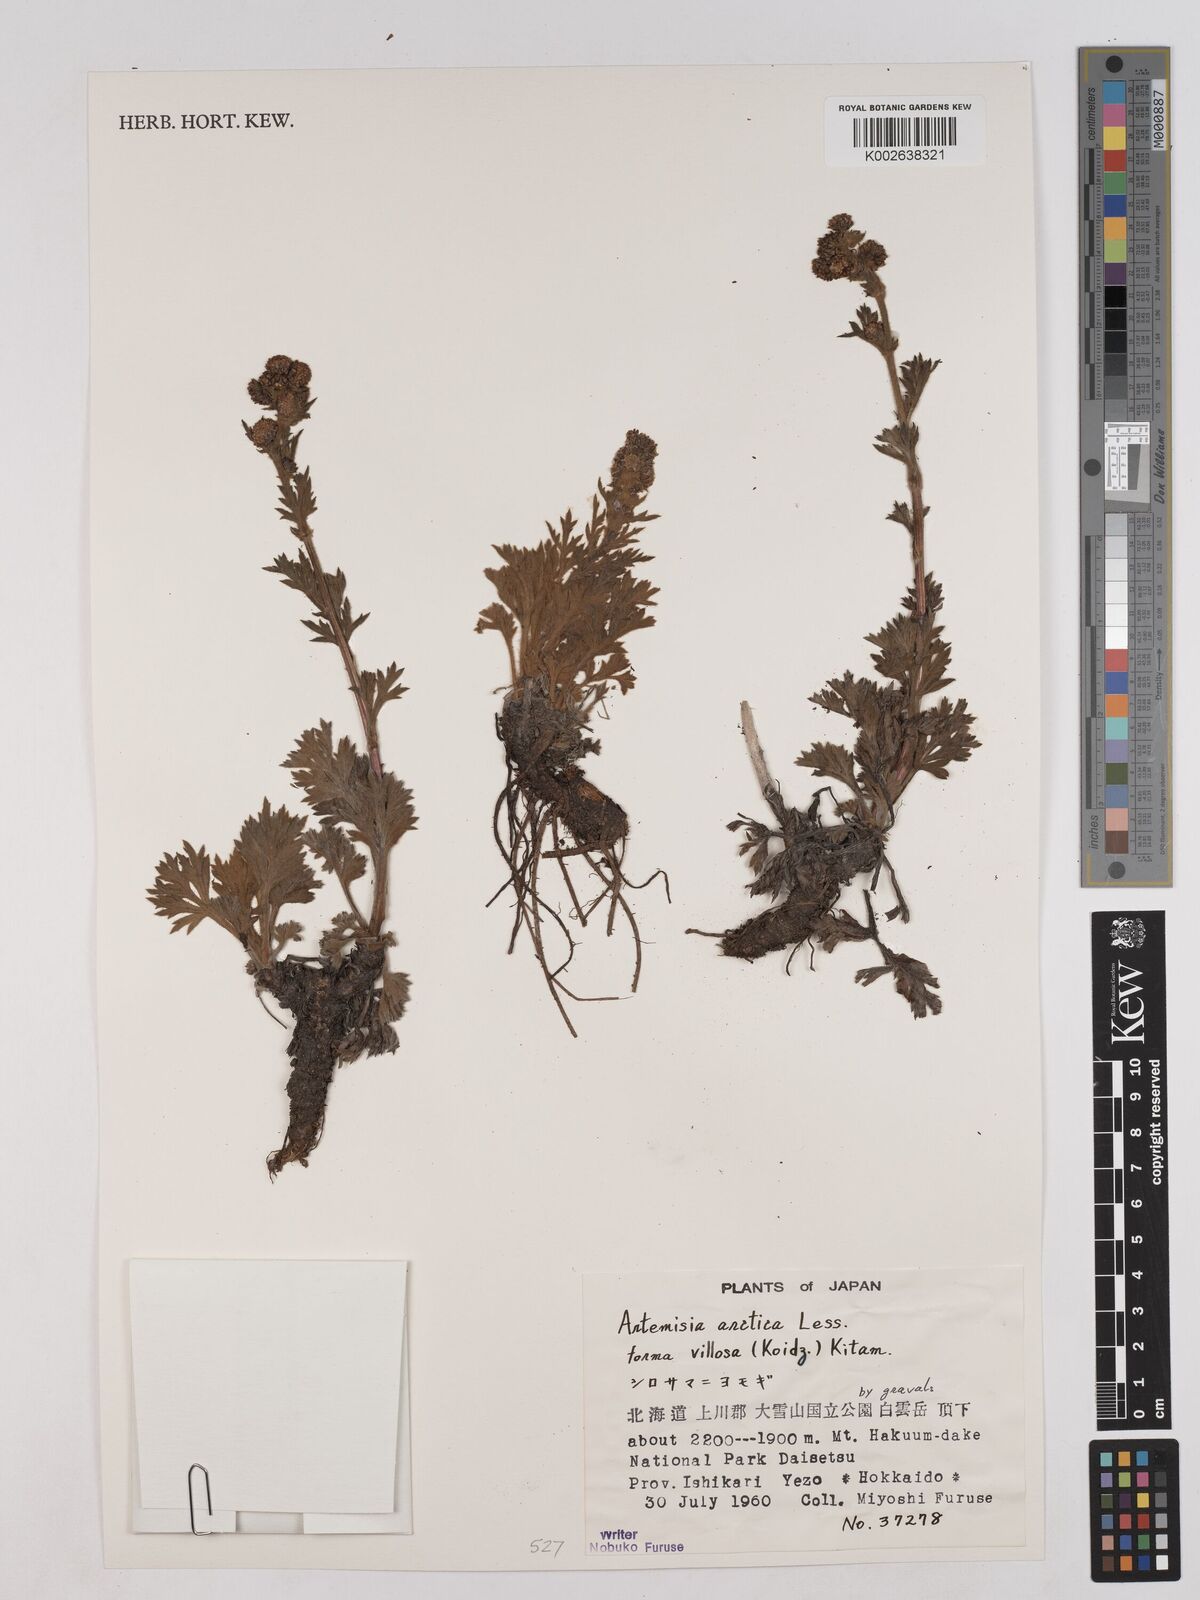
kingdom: Plantae
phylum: Tracheophyta
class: Magnoliopsida
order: Asterales
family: Asteraceae
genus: Artemisia
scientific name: Artemisia norvegica
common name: Norwegian mugwort
